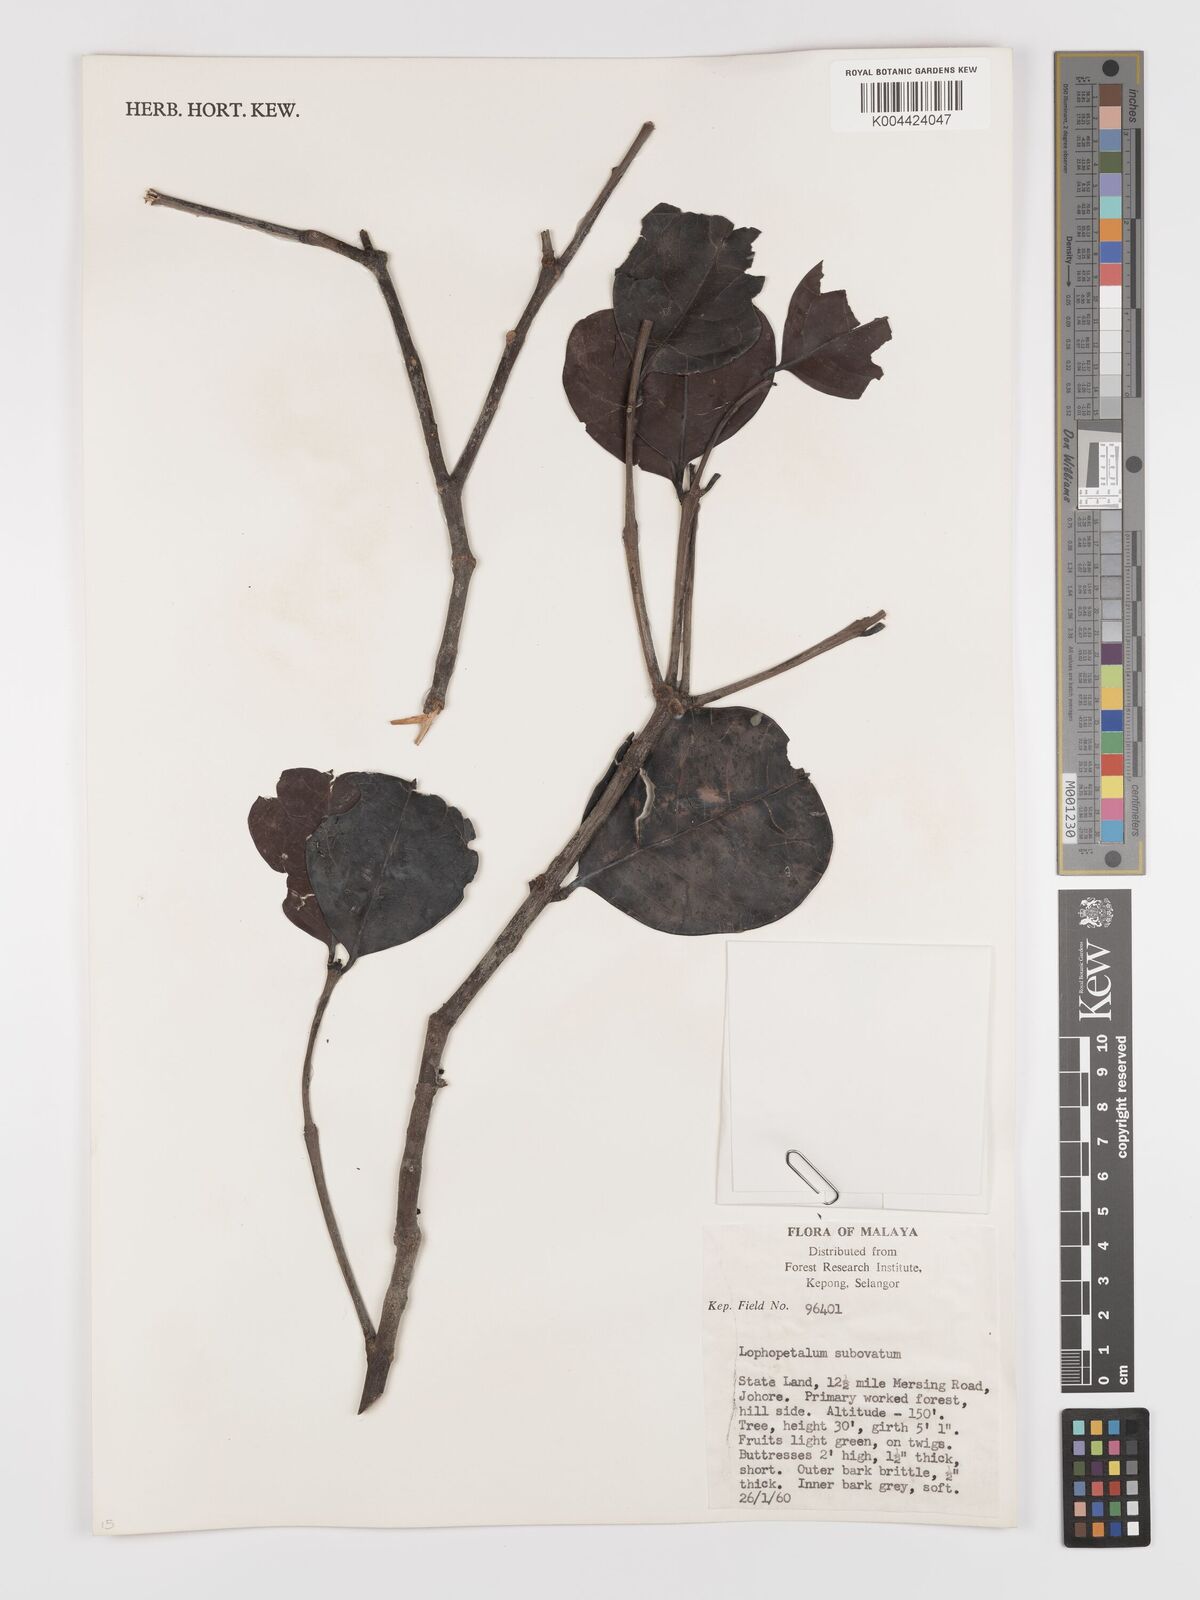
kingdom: Plantae
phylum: Tracheophyta
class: Magnoliopsida
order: Celastrales
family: Celastraceae
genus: Lophopetalum
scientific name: Lophopetalum subobovatum
